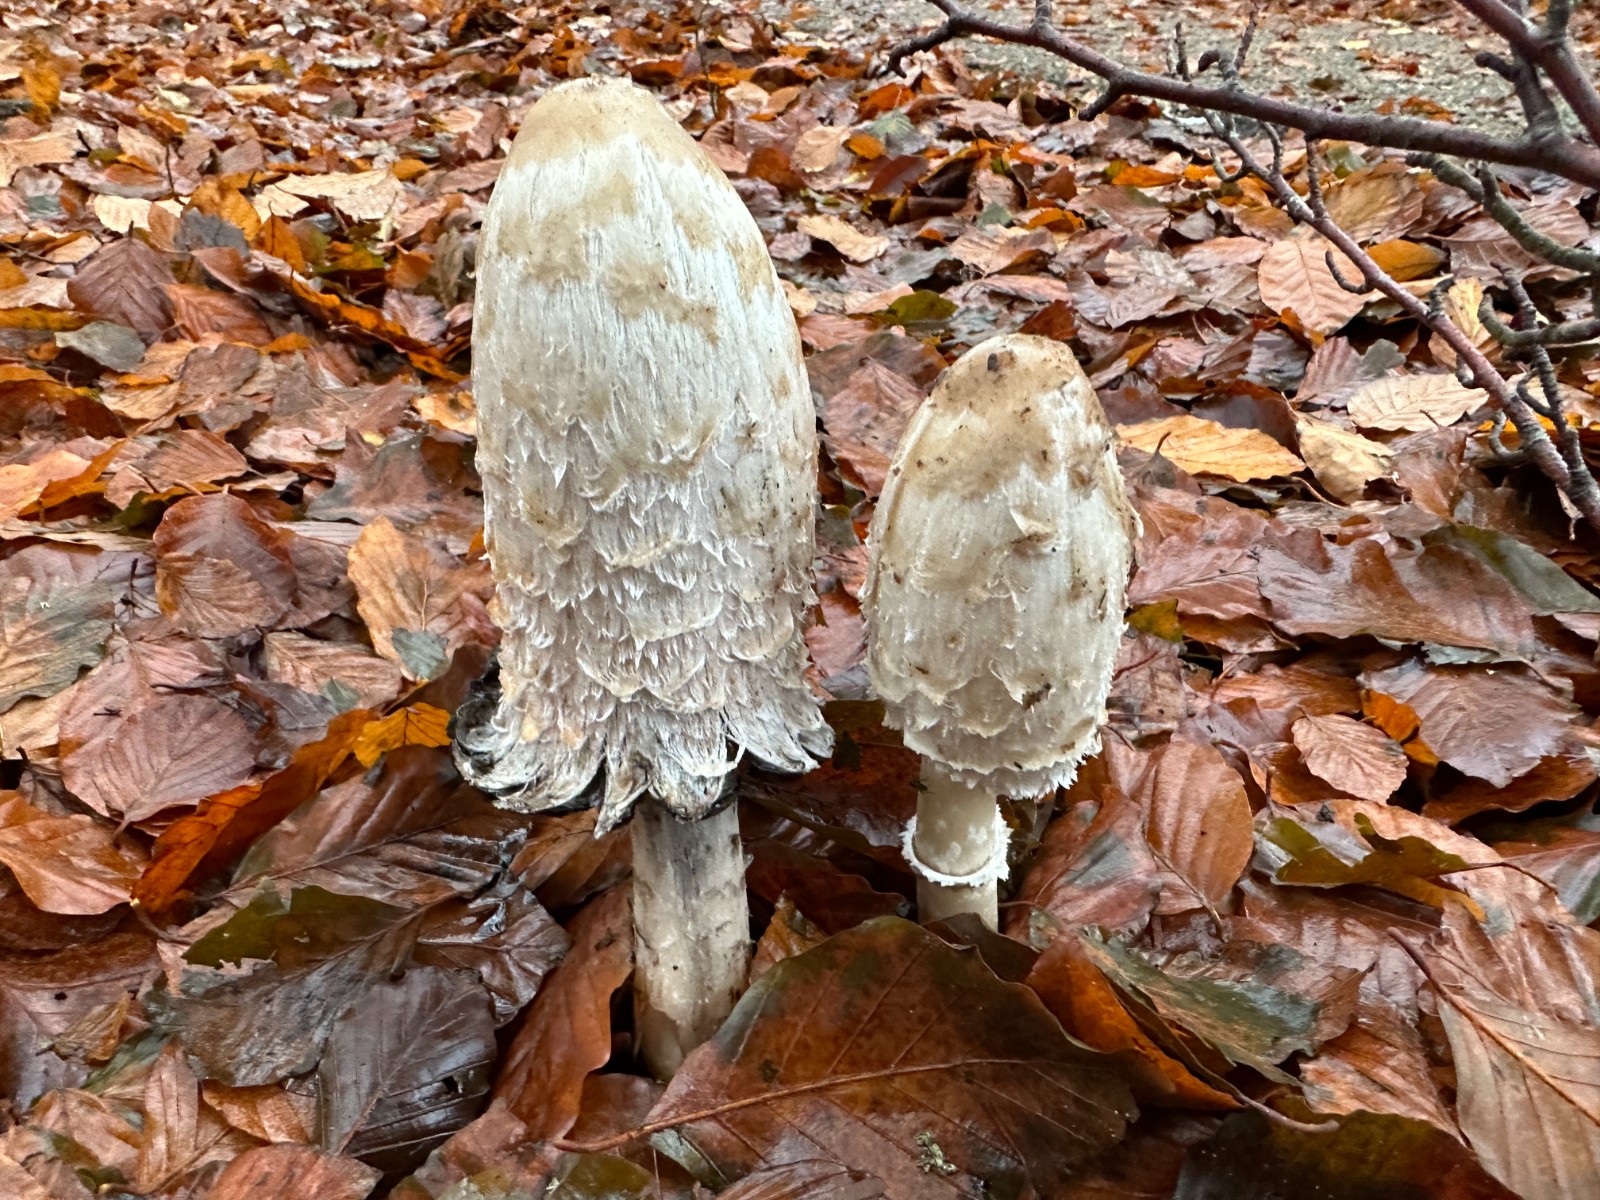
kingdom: Fungi
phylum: Basidiomycota
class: Agaricomycetes
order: Agaricales
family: Agaricaceae
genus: Coprinus
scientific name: Coprinus comatus
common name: stor parykhat
